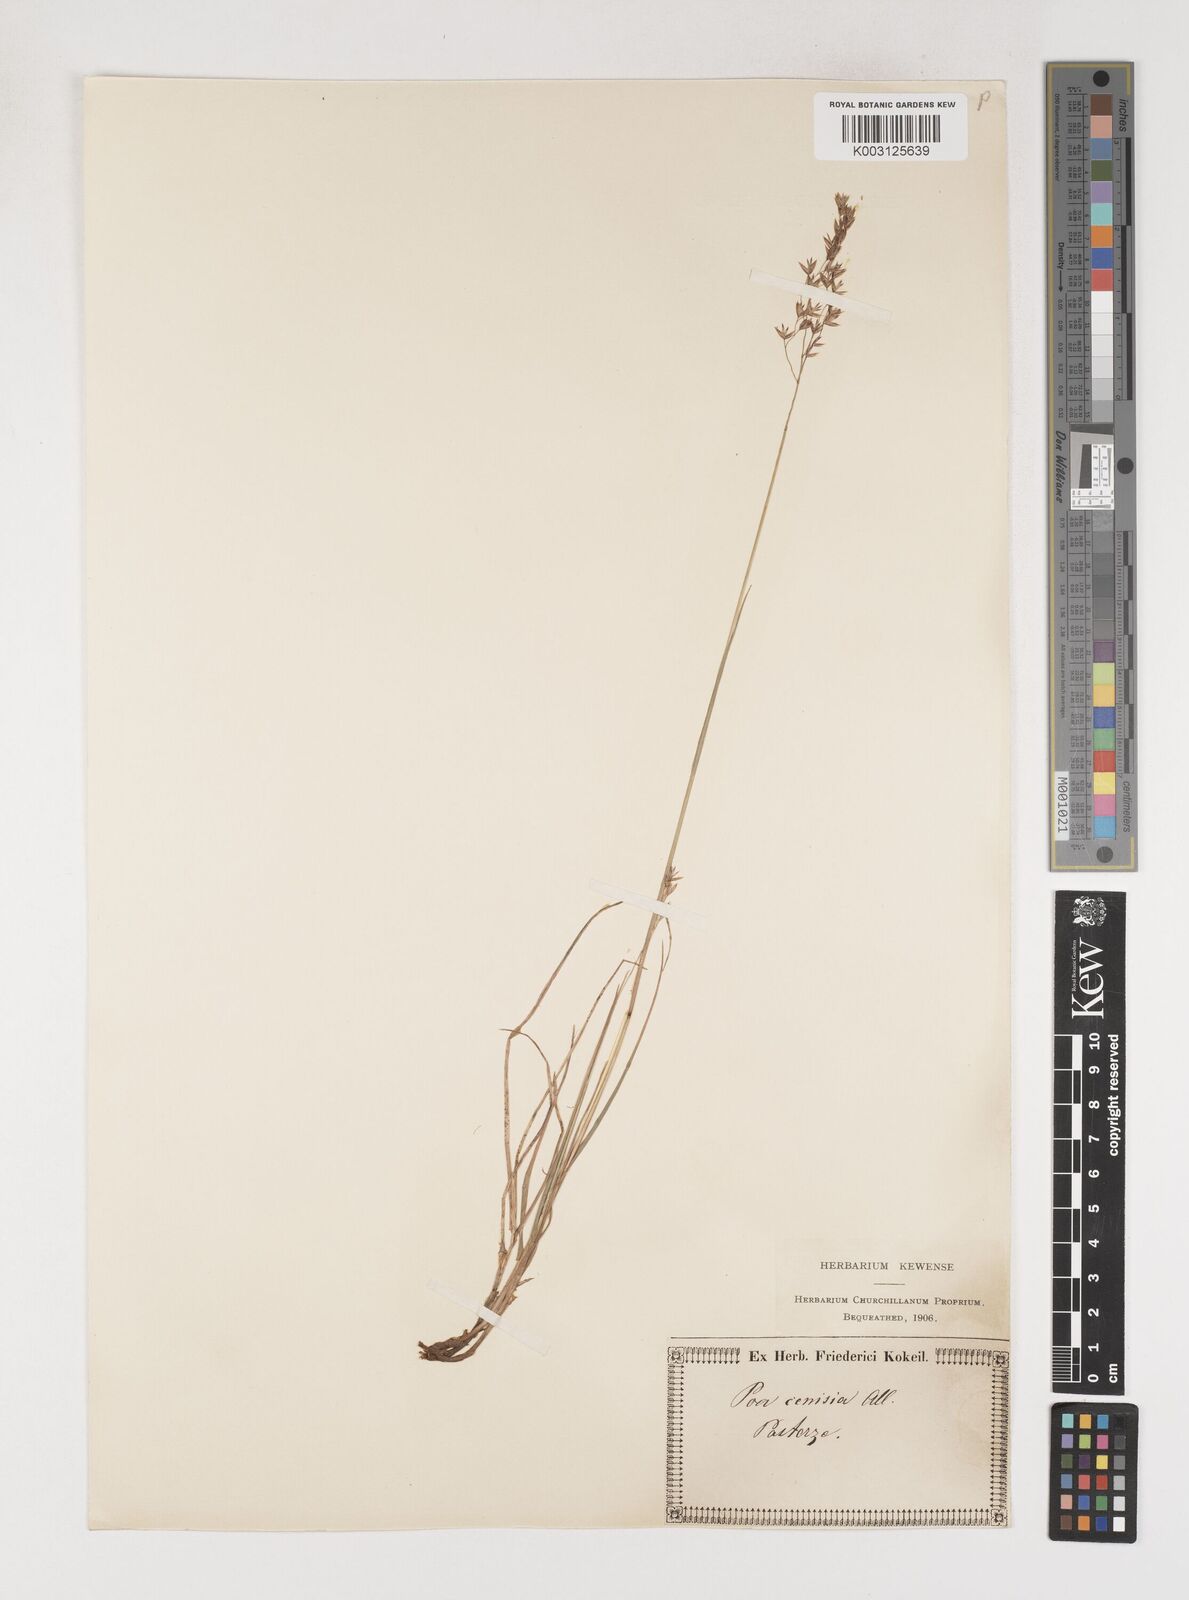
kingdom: Plantae
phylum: Tracheophyta
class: Liliopsida
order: Poales
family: Poaceae
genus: Poa
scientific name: Poa cenisia
